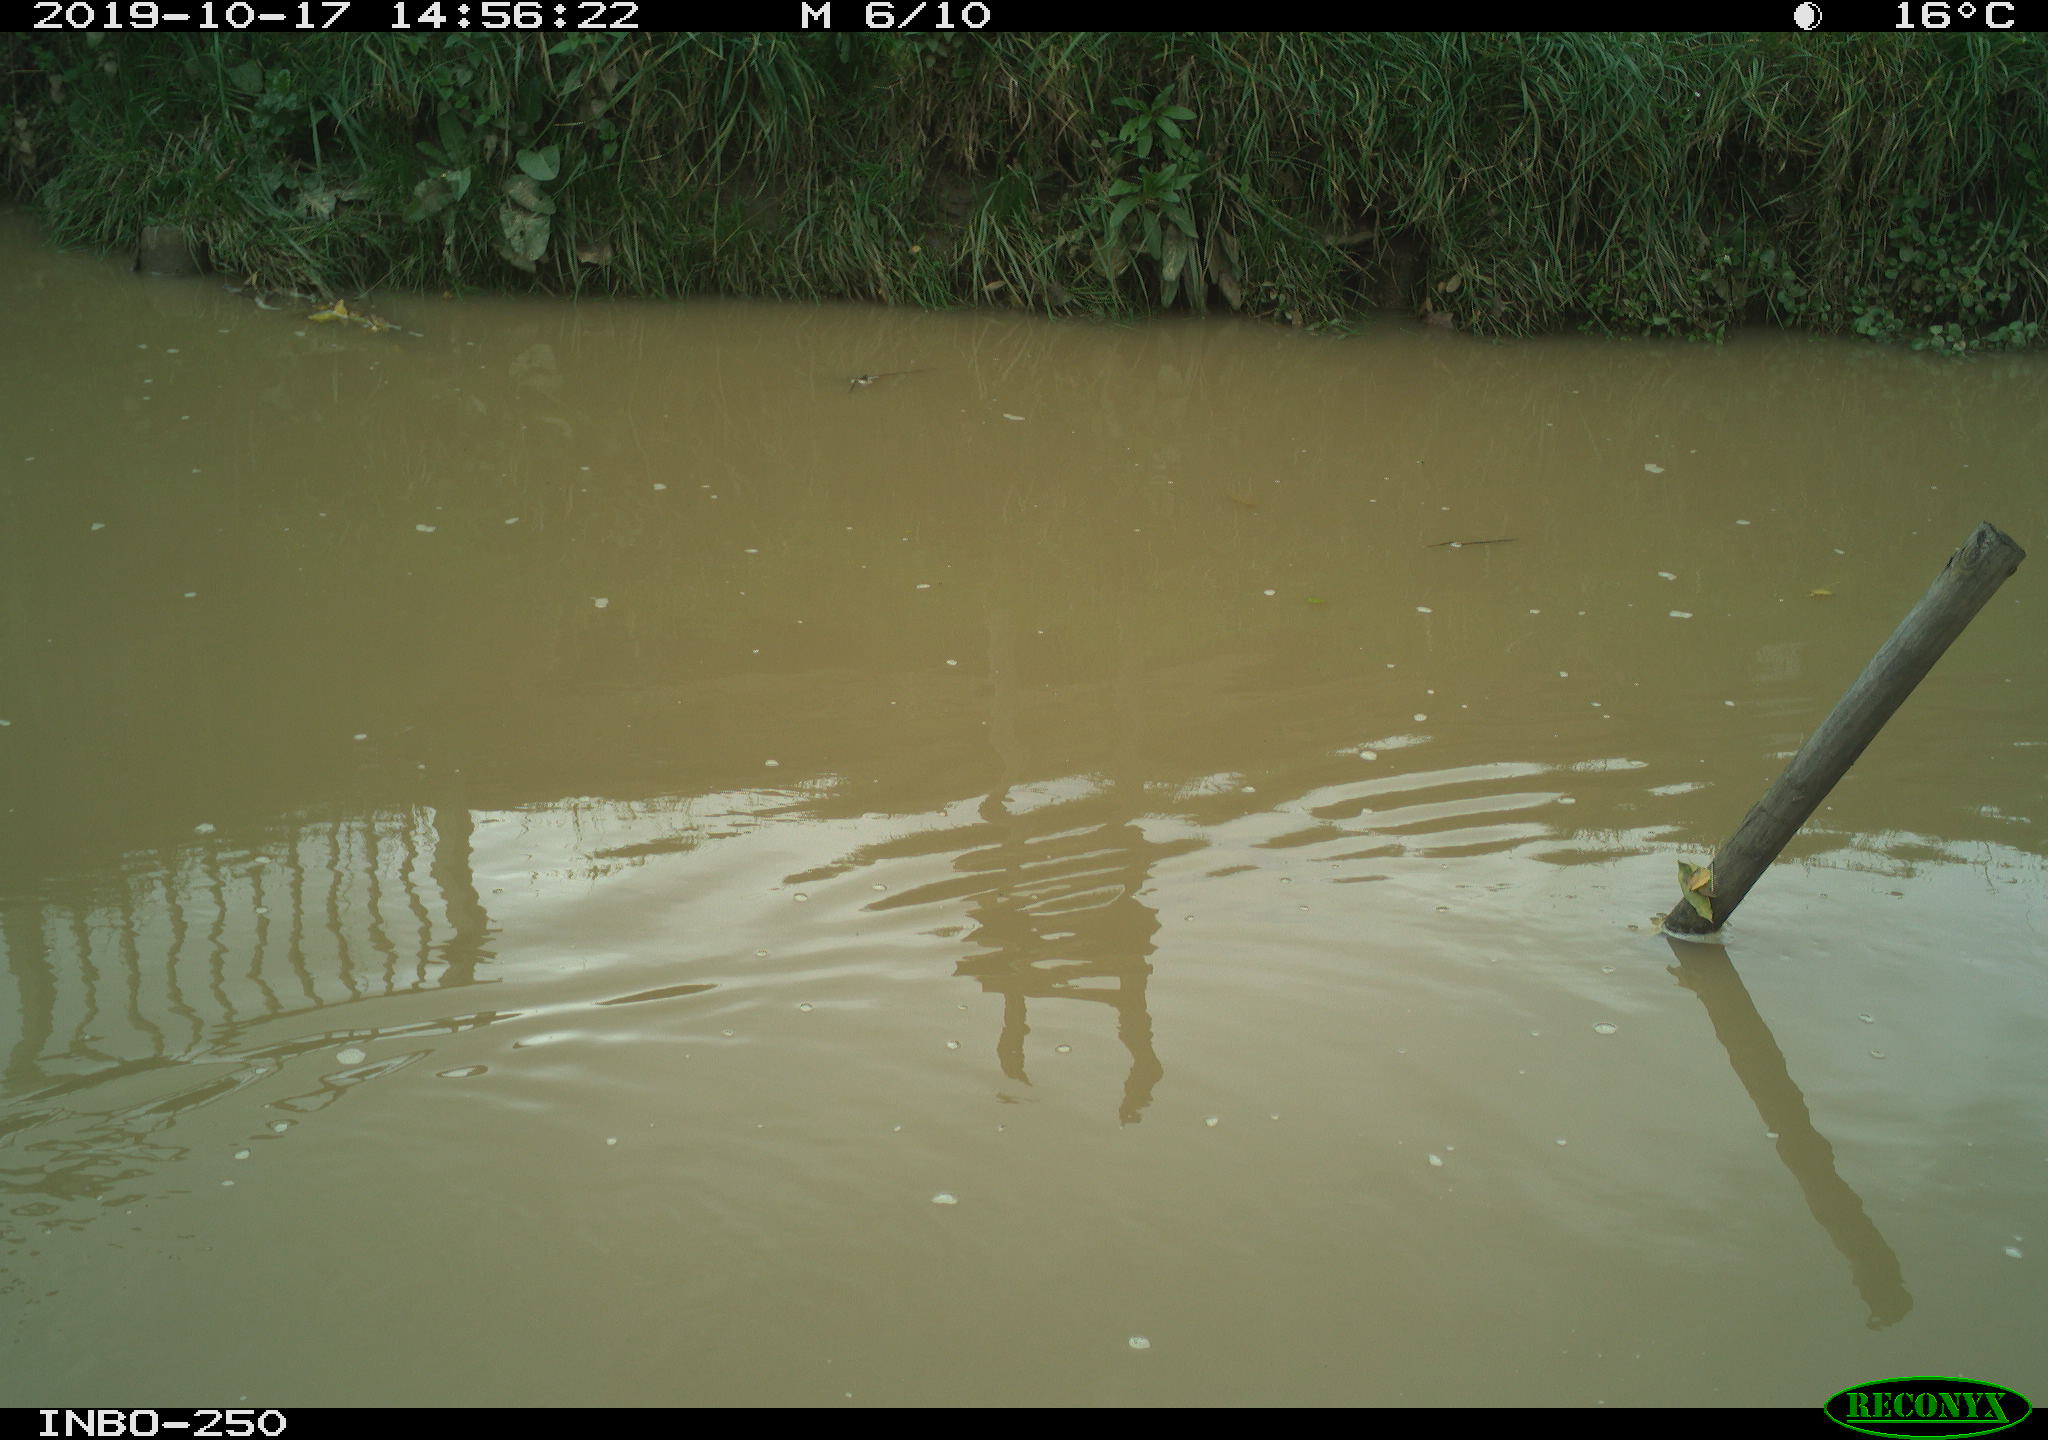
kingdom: Animalia
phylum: Chordata
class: Aves
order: Gruiformes
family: Rallidae
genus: Gallinula
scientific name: Gallinula chloropus
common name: Common moorhen
